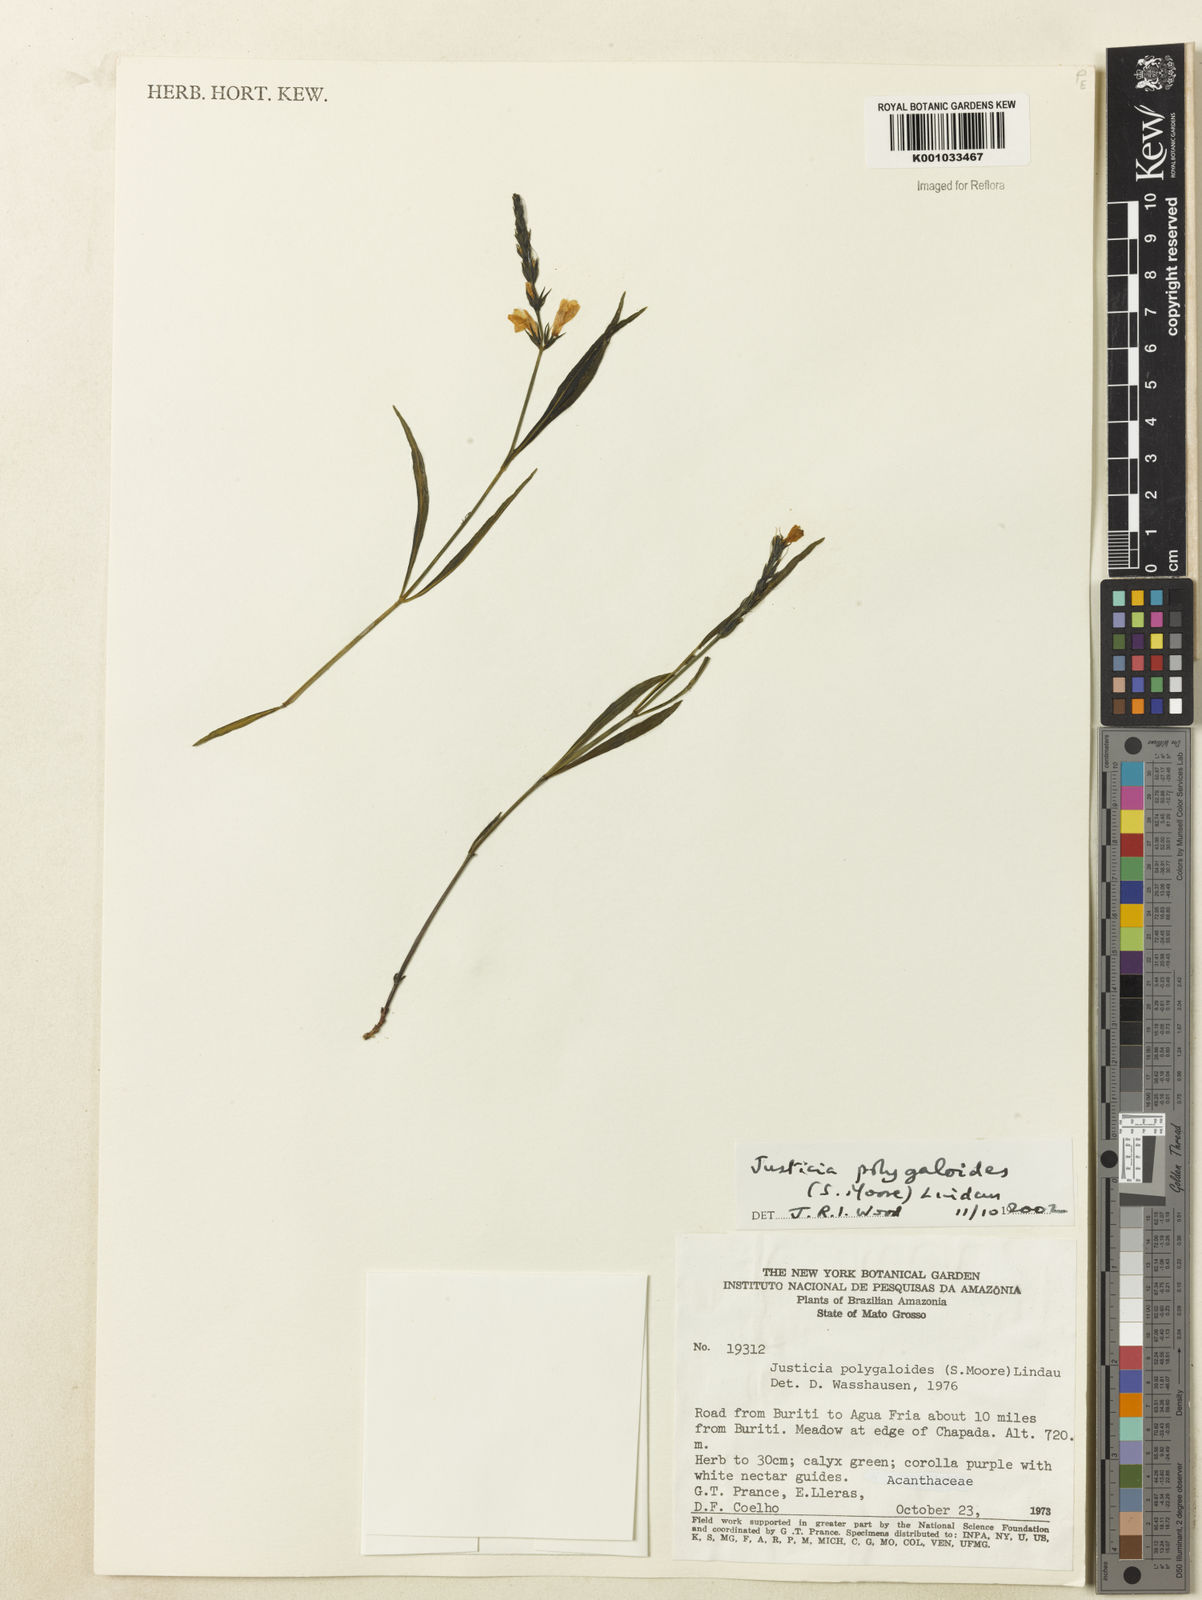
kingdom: Plantae
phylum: Tracheophyta
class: Magnoliopsida
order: Lamiales
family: Acanthaceae
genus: Dianthera
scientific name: Dianthera polygaloides
